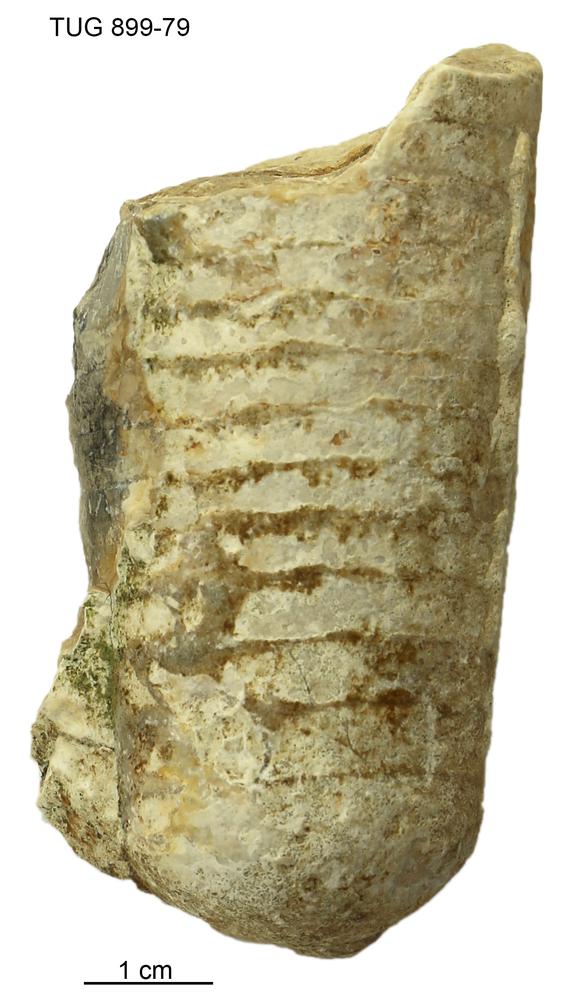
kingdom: Animalia
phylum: Mollusca
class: Cephalopoda
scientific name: Cephalopoda
